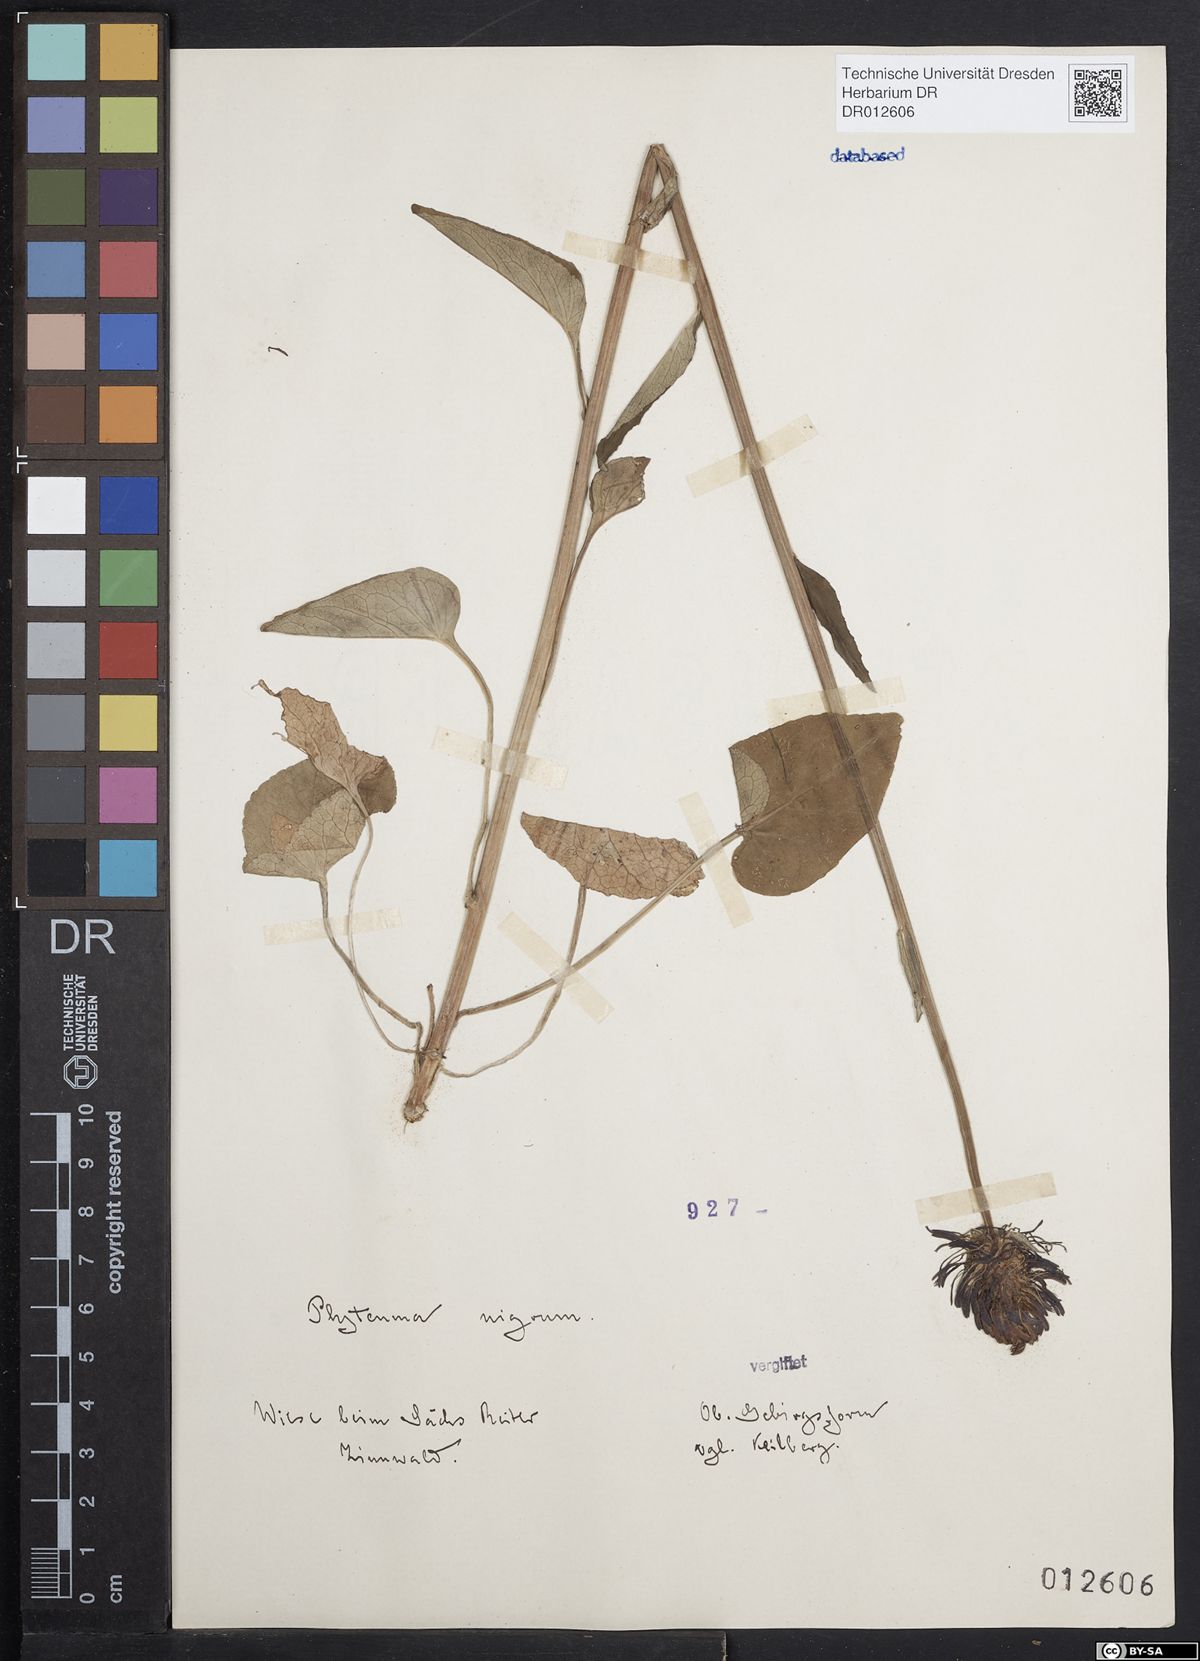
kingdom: Plantae
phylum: Tracheophyta
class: Magnoliopsida
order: Asterales
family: Campanulaceae
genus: Phyteuma
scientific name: Phyteuma nigrum
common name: Black rampion
